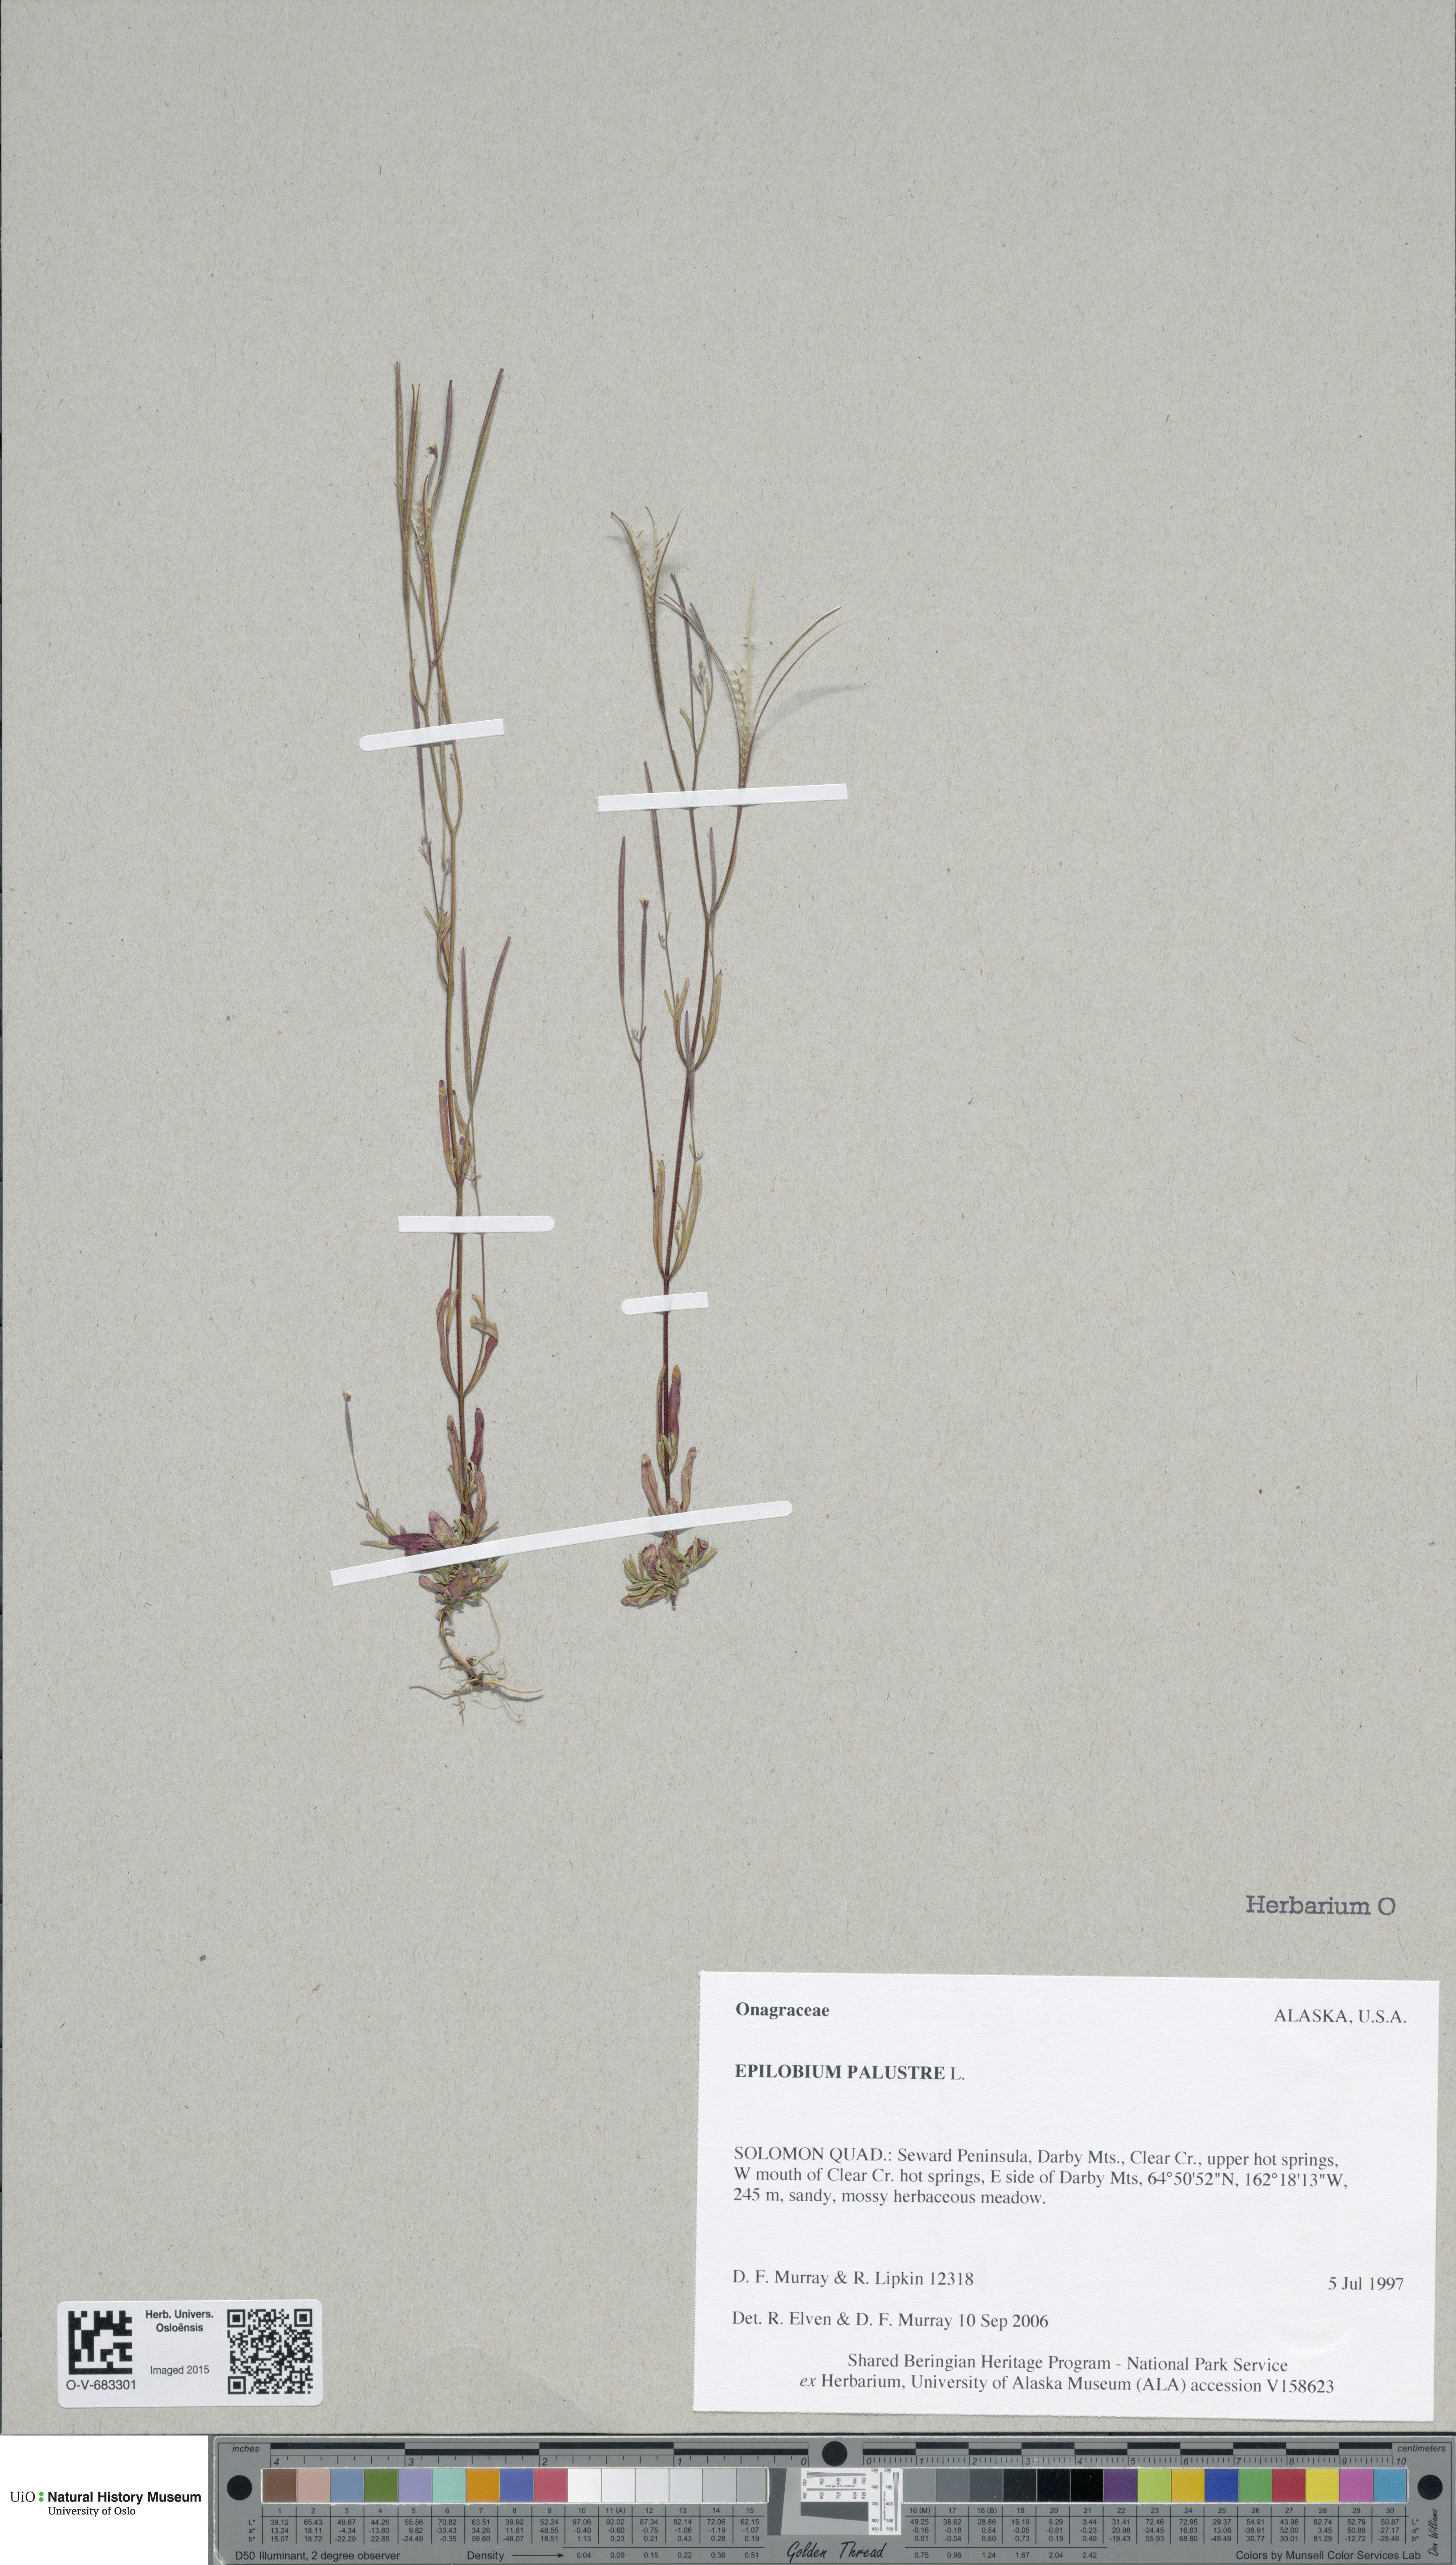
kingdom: Plantae
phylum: Tracheophyta
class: Magnoliopsida
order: Myrtales
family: Onagraceae
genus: Epilobium
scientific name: Epilobium palustre
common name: Marsh willowherb
